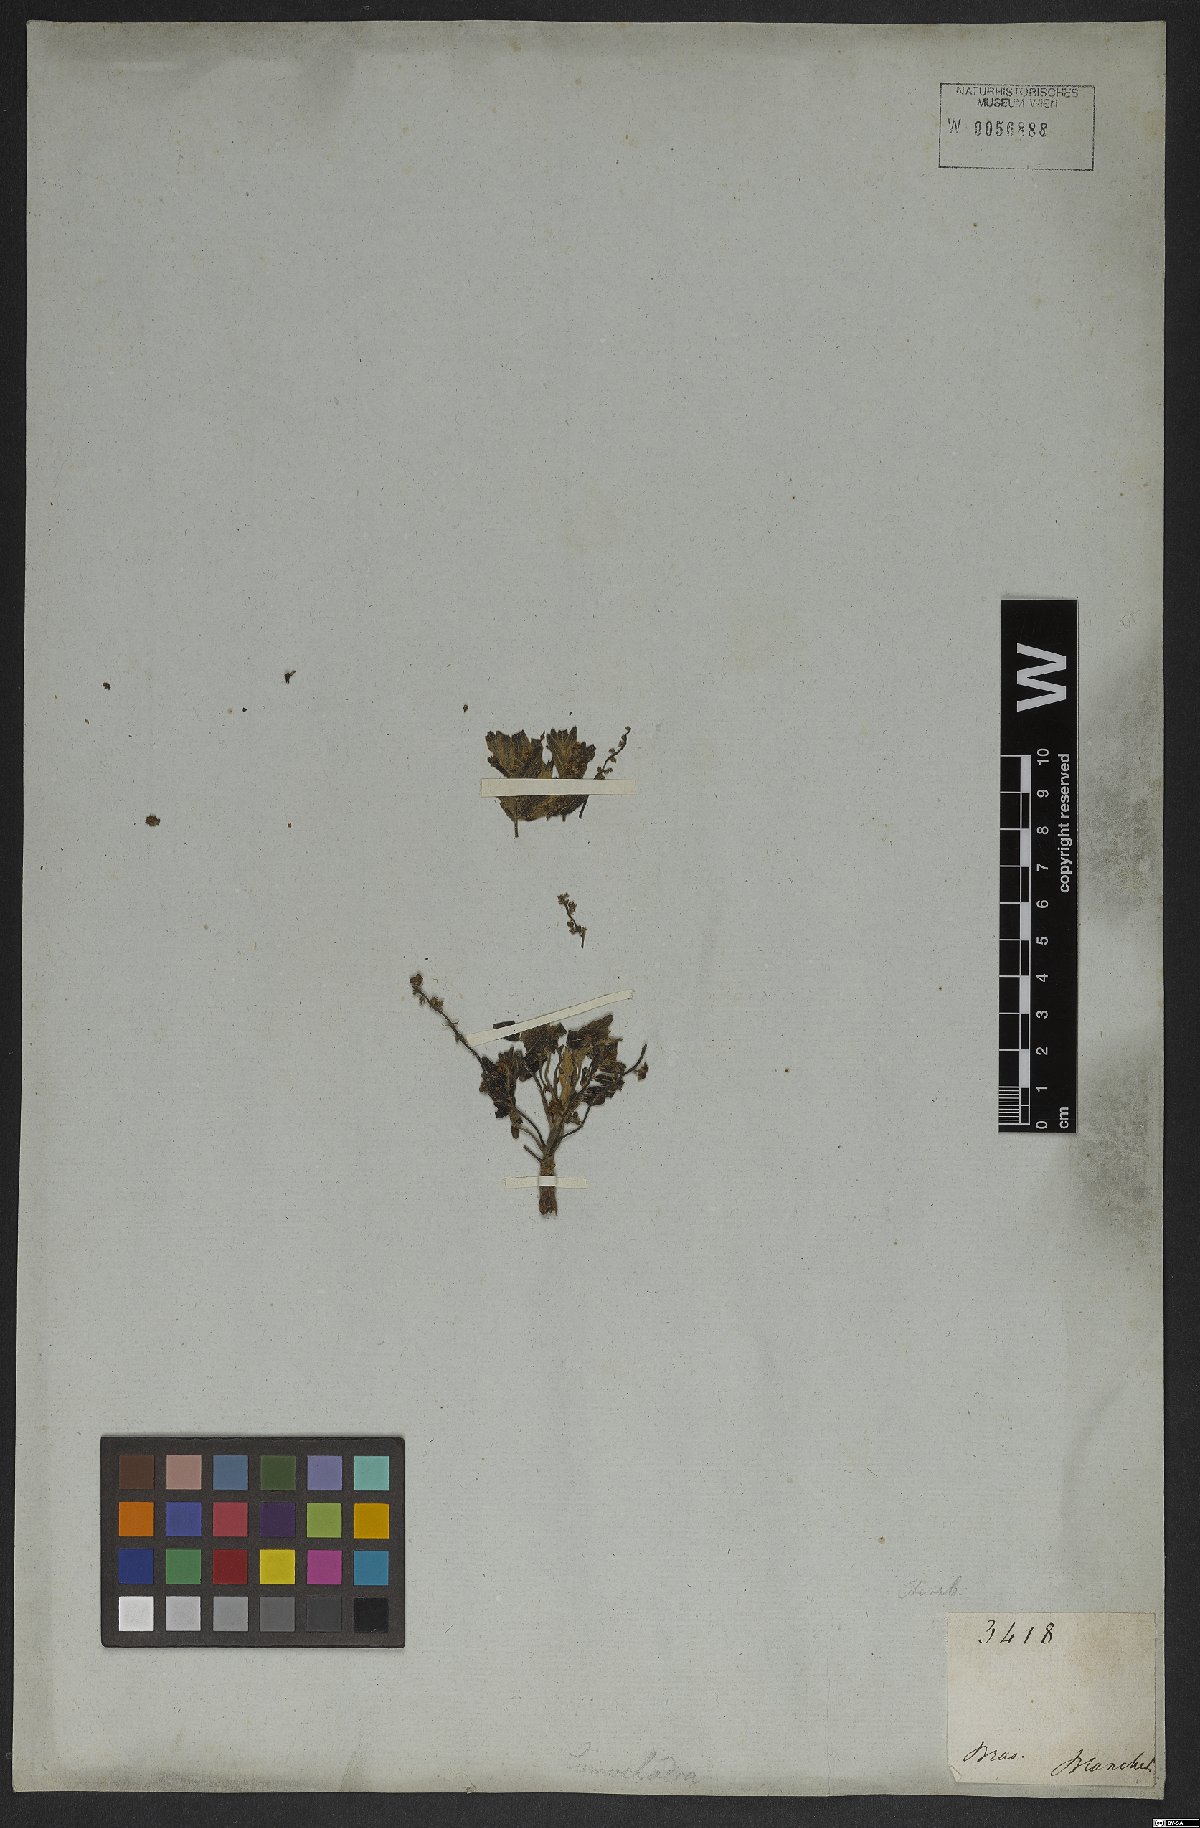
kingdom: Plantae
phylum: Tracheophyta
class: Magnoliopsida
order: Sapindales
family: Anacardiaceae
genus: Schinus
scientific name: Schinus
